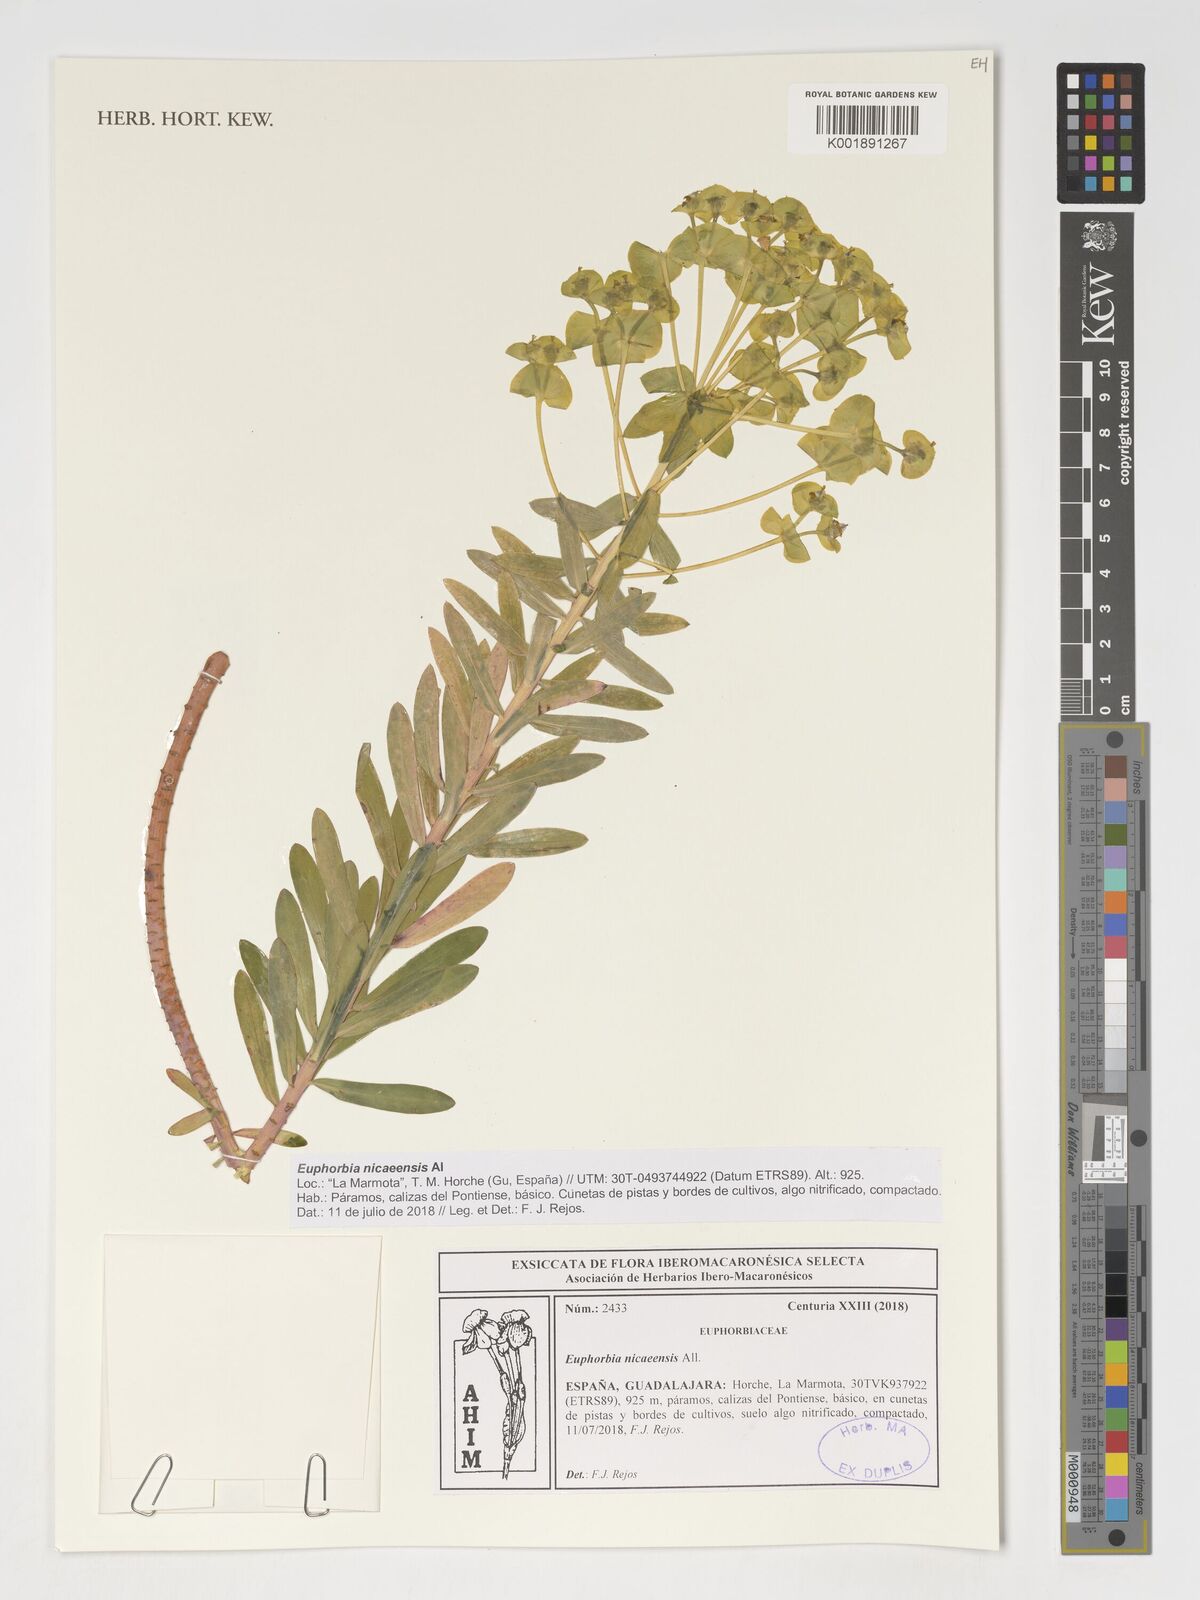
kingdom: Plantae
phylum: Tracheophyta
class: Magnoliopsida
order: Malpighiales
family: Euphorbiaceae
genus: Euphorbia
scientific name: Euphorbia nicaeensis
